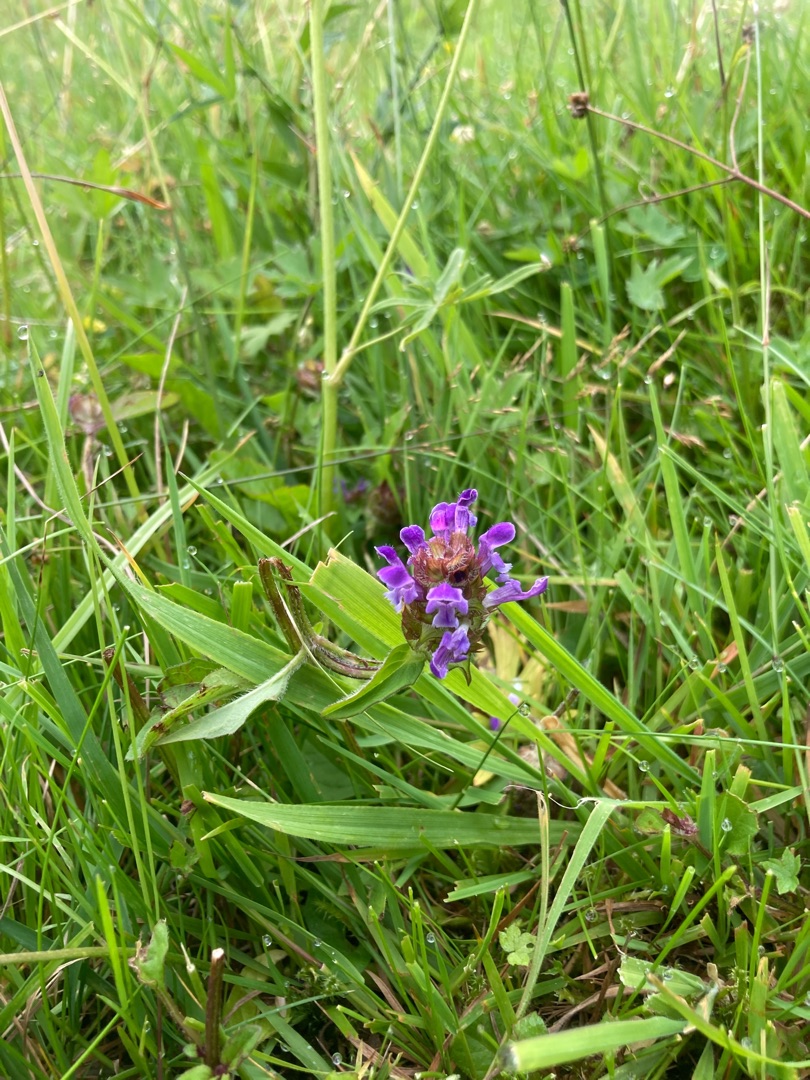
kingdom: Plantae
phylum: Tracheophyta
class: Magnoliopsida
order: Lamiales
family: Lamiaceae
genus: Prunella
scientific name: Prunella vulgaris
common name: Almindelig brunelle
